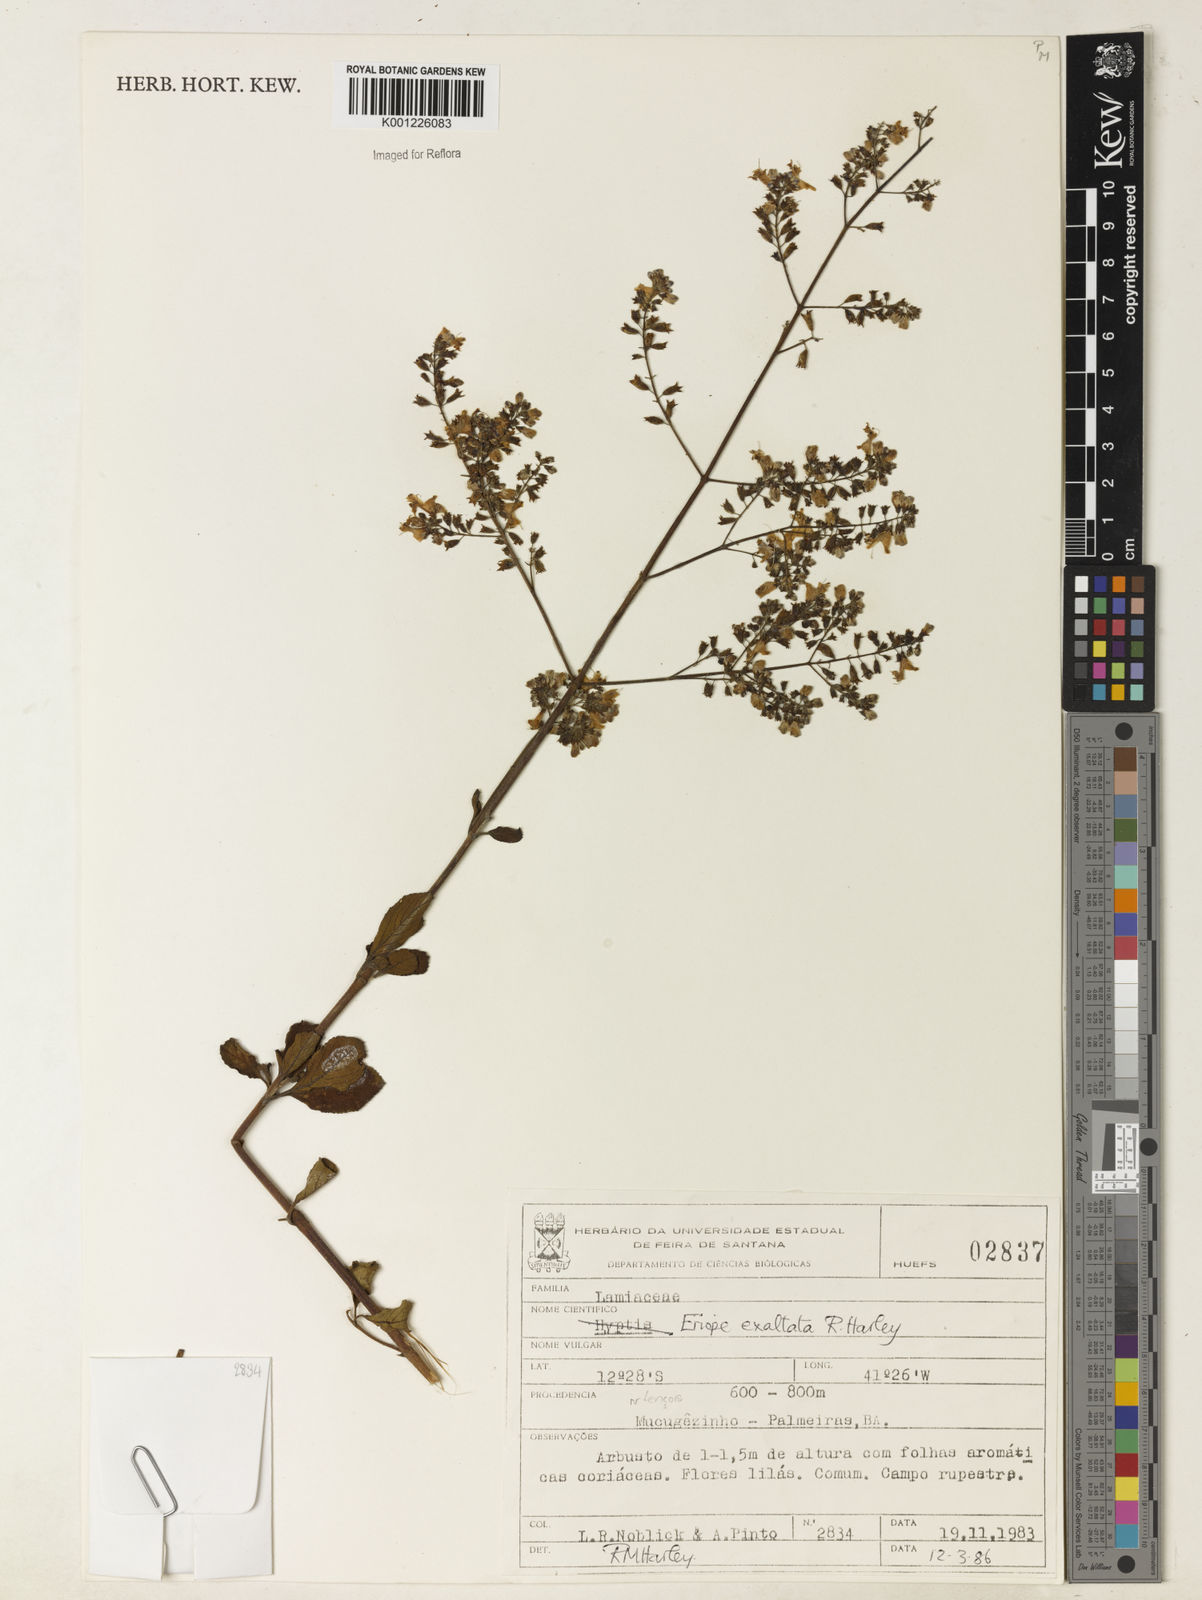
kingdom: Plantae
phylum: Tracheophyta
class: Magnoliopsida
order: Lamiales
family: Lamiaceae
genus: Eriope
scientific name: Eriope exaltata
